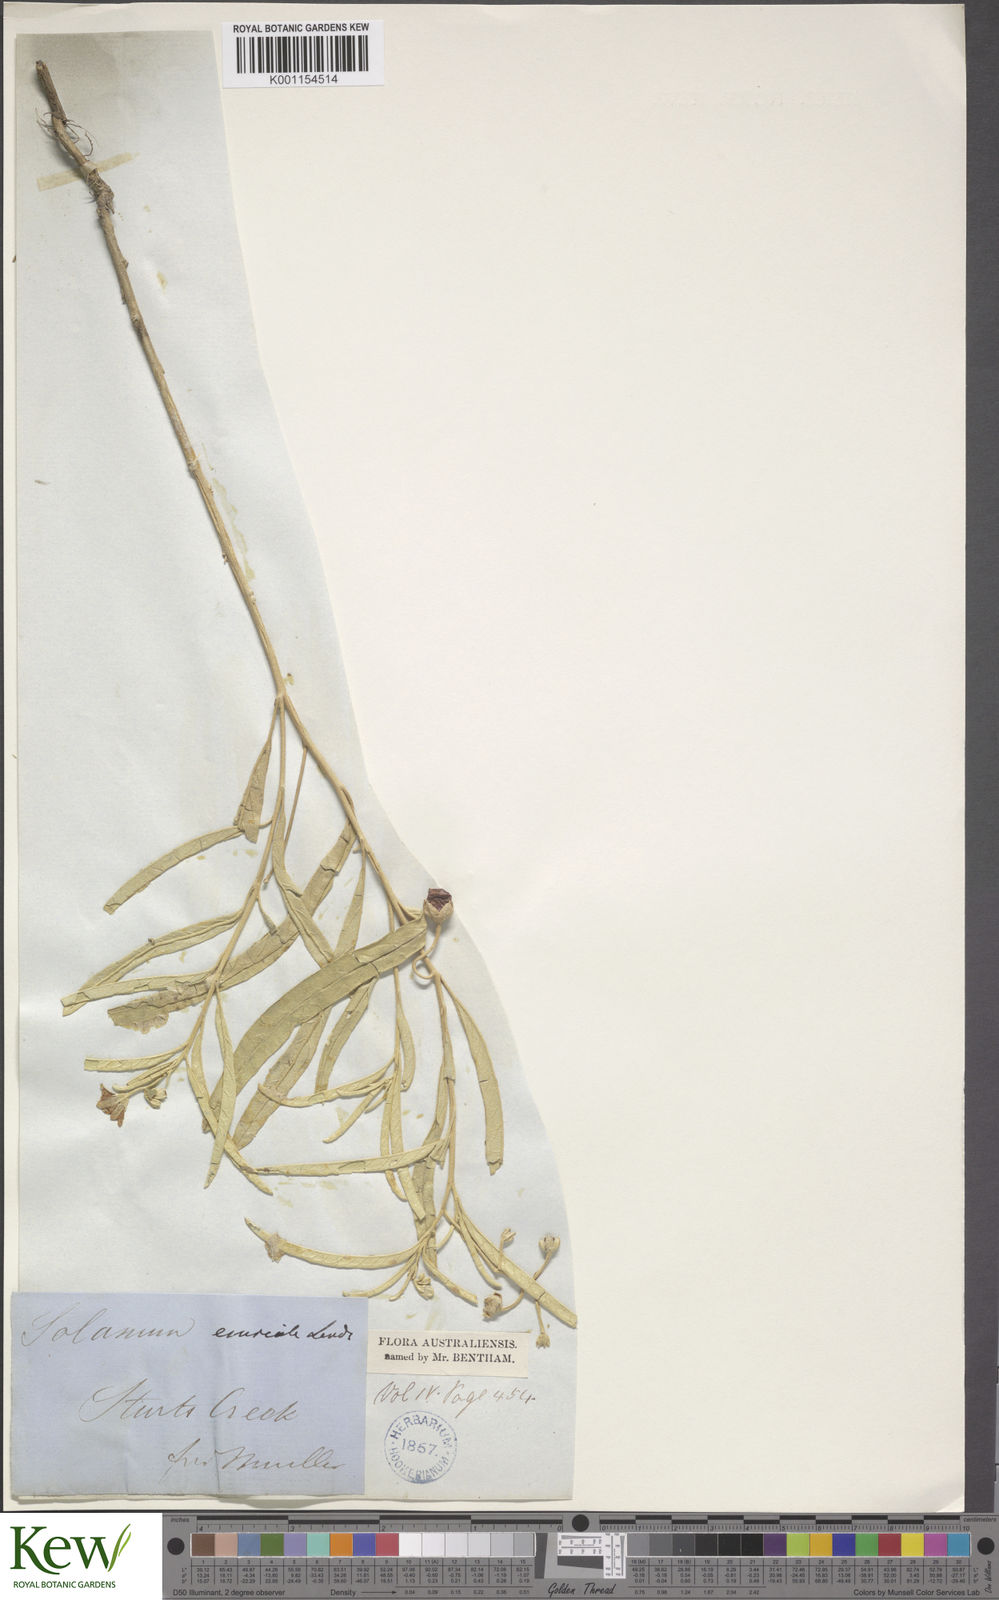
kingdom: Plantae
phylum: Tracheophyta
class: Magnoliopsida
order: Solanales
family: Solanaceae
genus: Solanum
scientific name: Solanum esuriale
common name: Wild tomato
